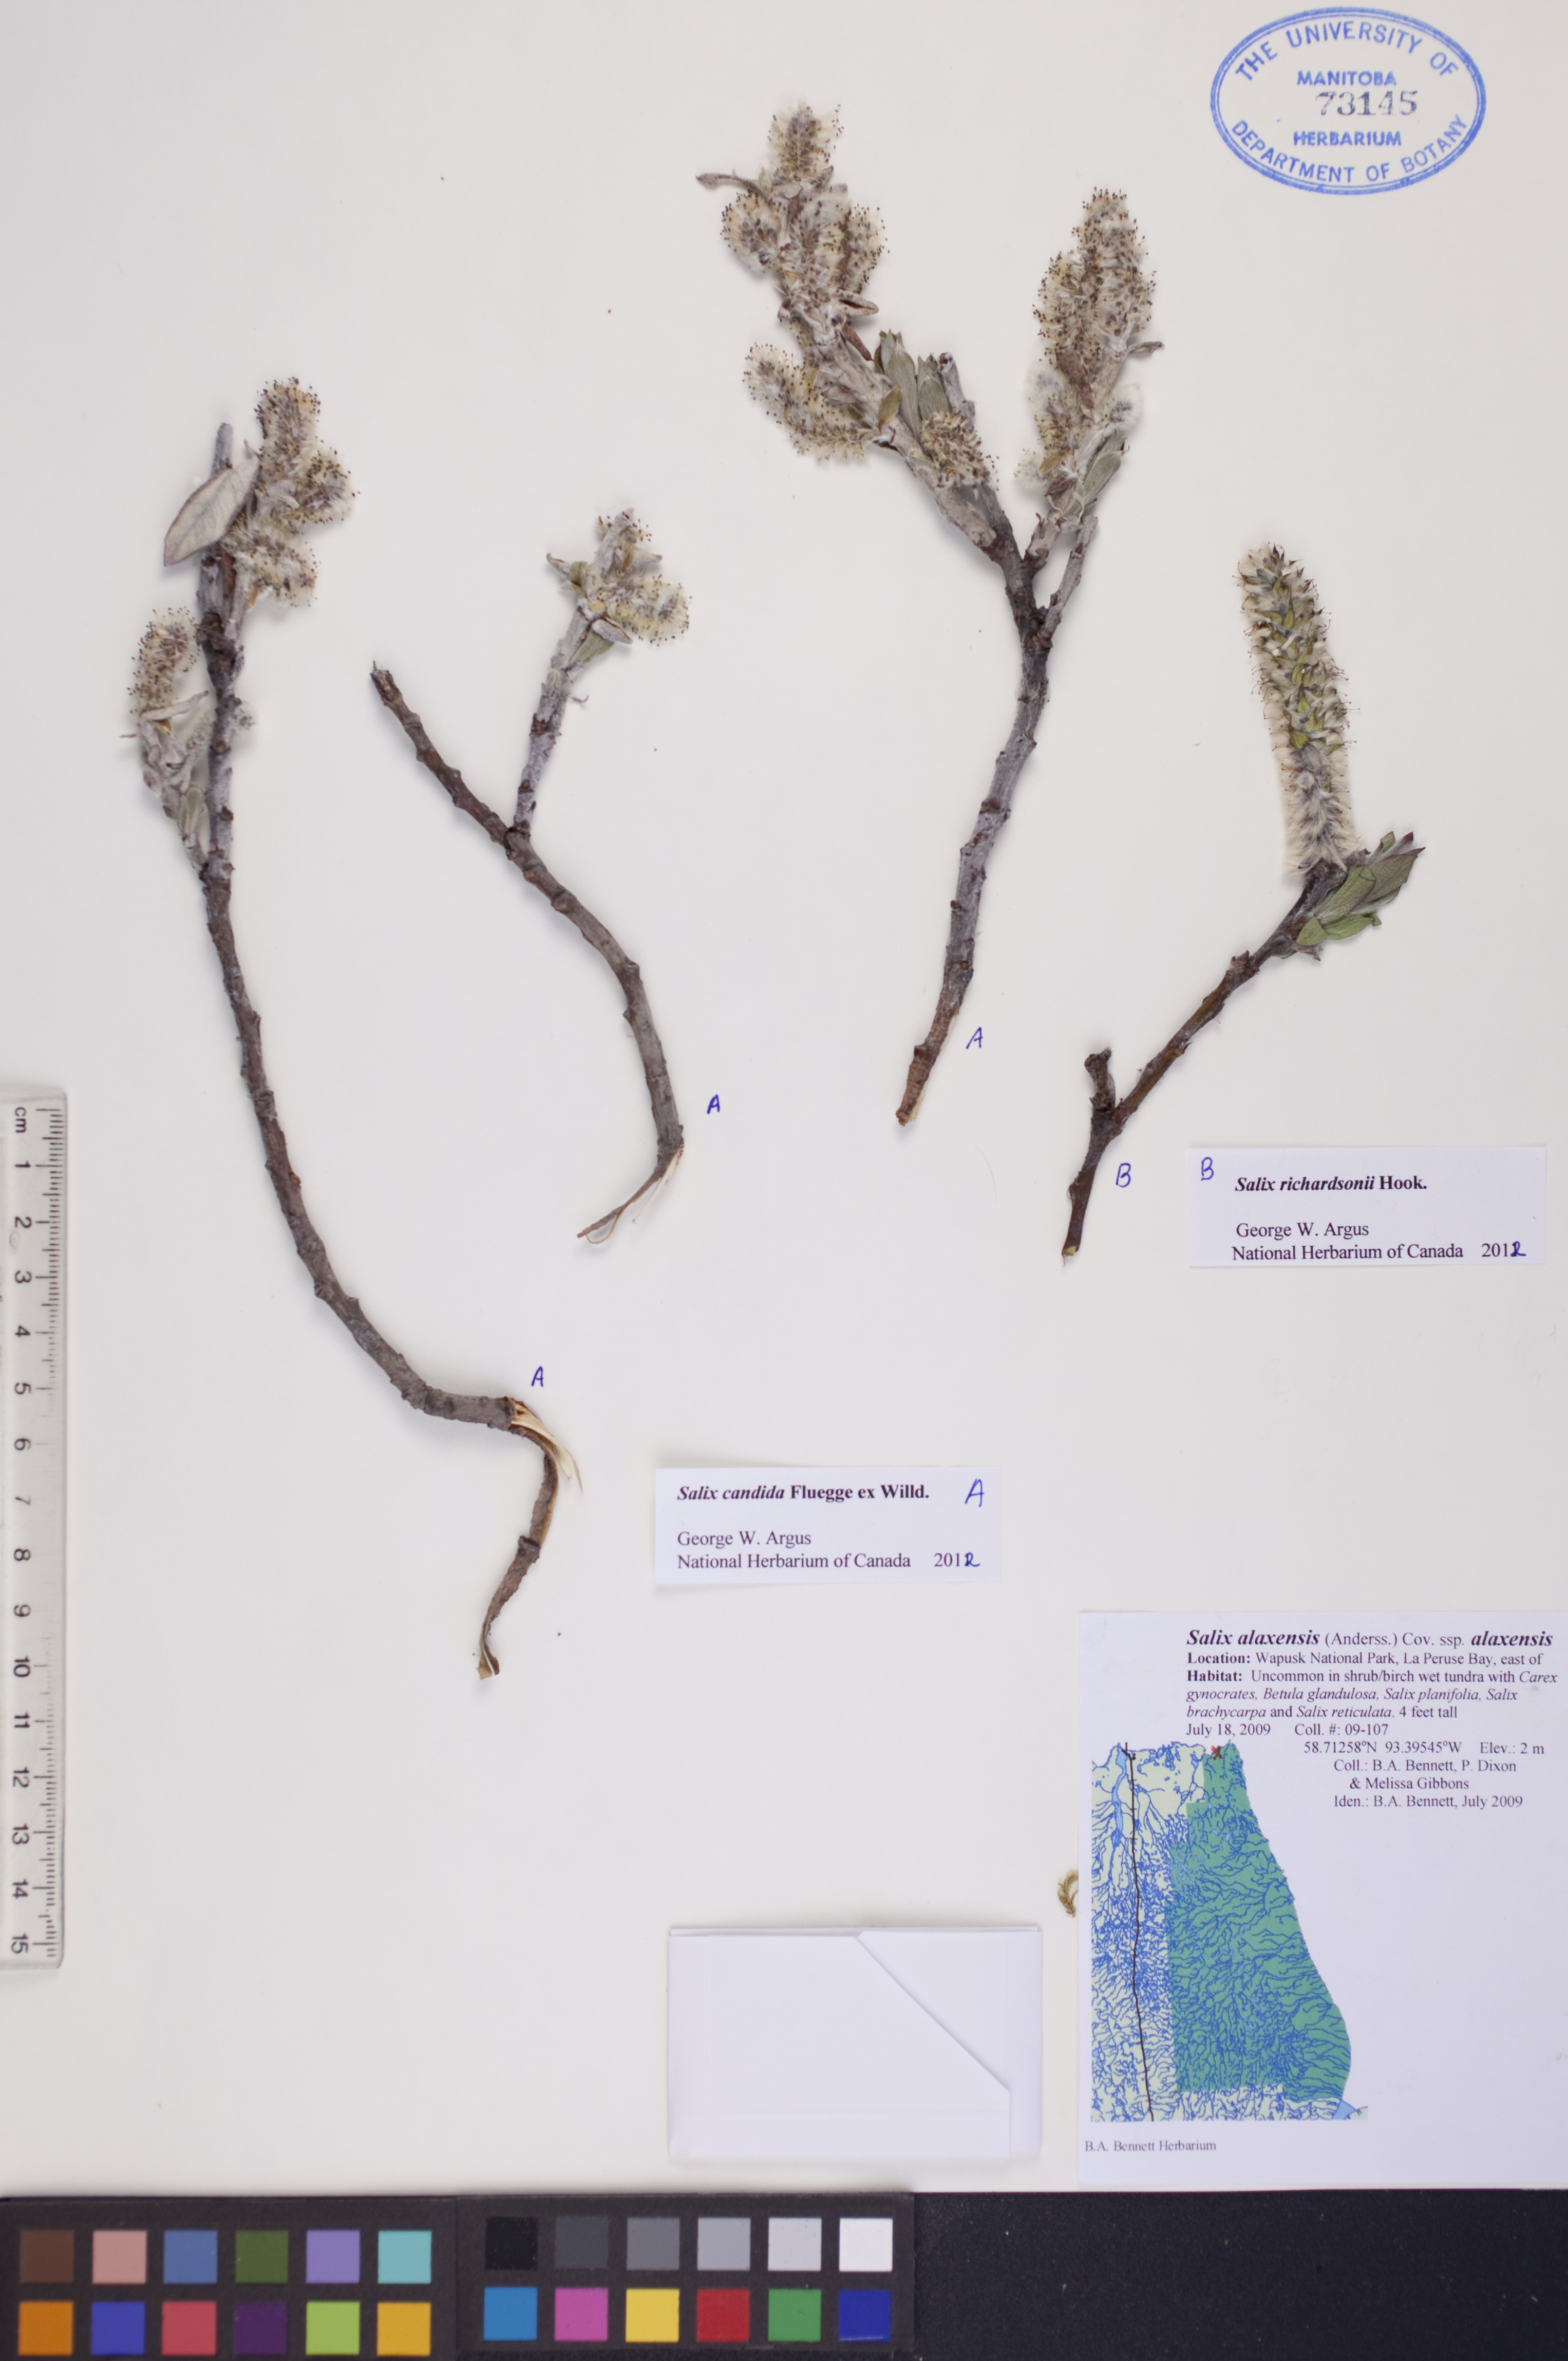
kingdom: Plantae
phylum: Tracheophyta
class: Magnoliopsida
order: Malpighiales
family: Salicaceae
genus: Salix
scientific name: Salix candida
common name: Hoary willow
